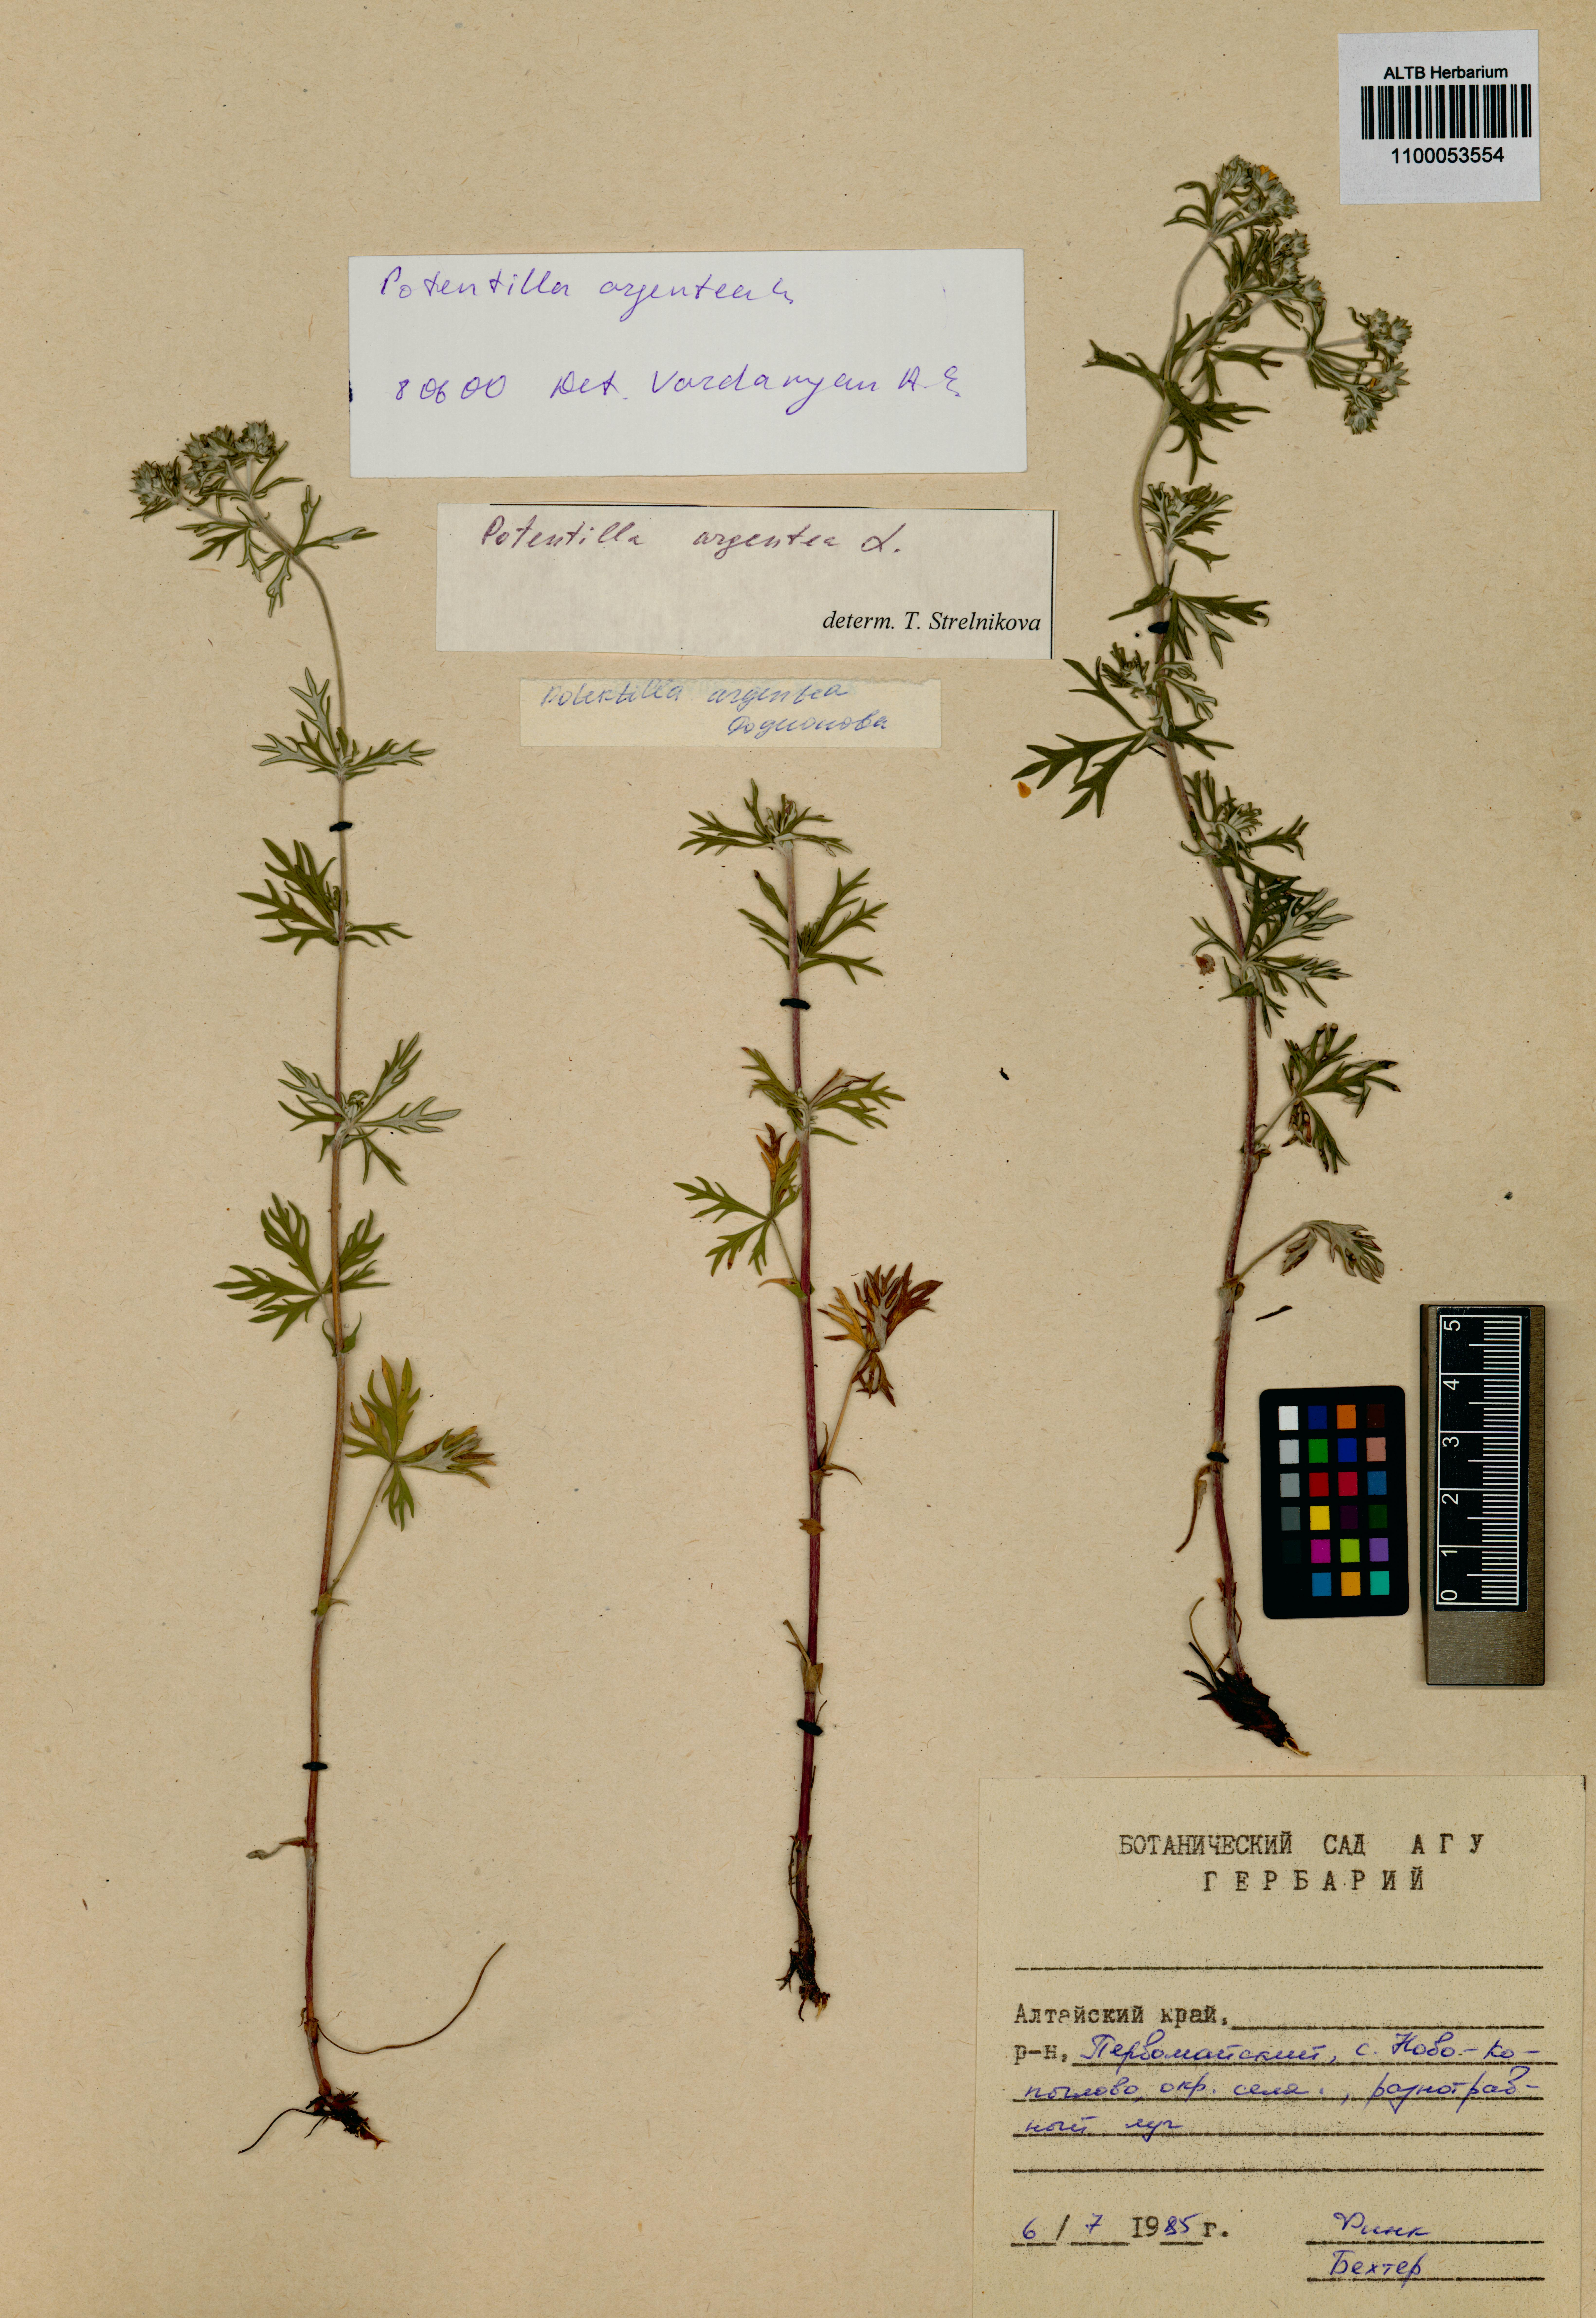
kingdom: Plantae
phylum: Tracheophyta
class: Magnoliopsida
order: Rosales
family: Rosaceae
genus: Potentilla
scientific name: Potentilla argentea
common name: Hoary cinquefoil
